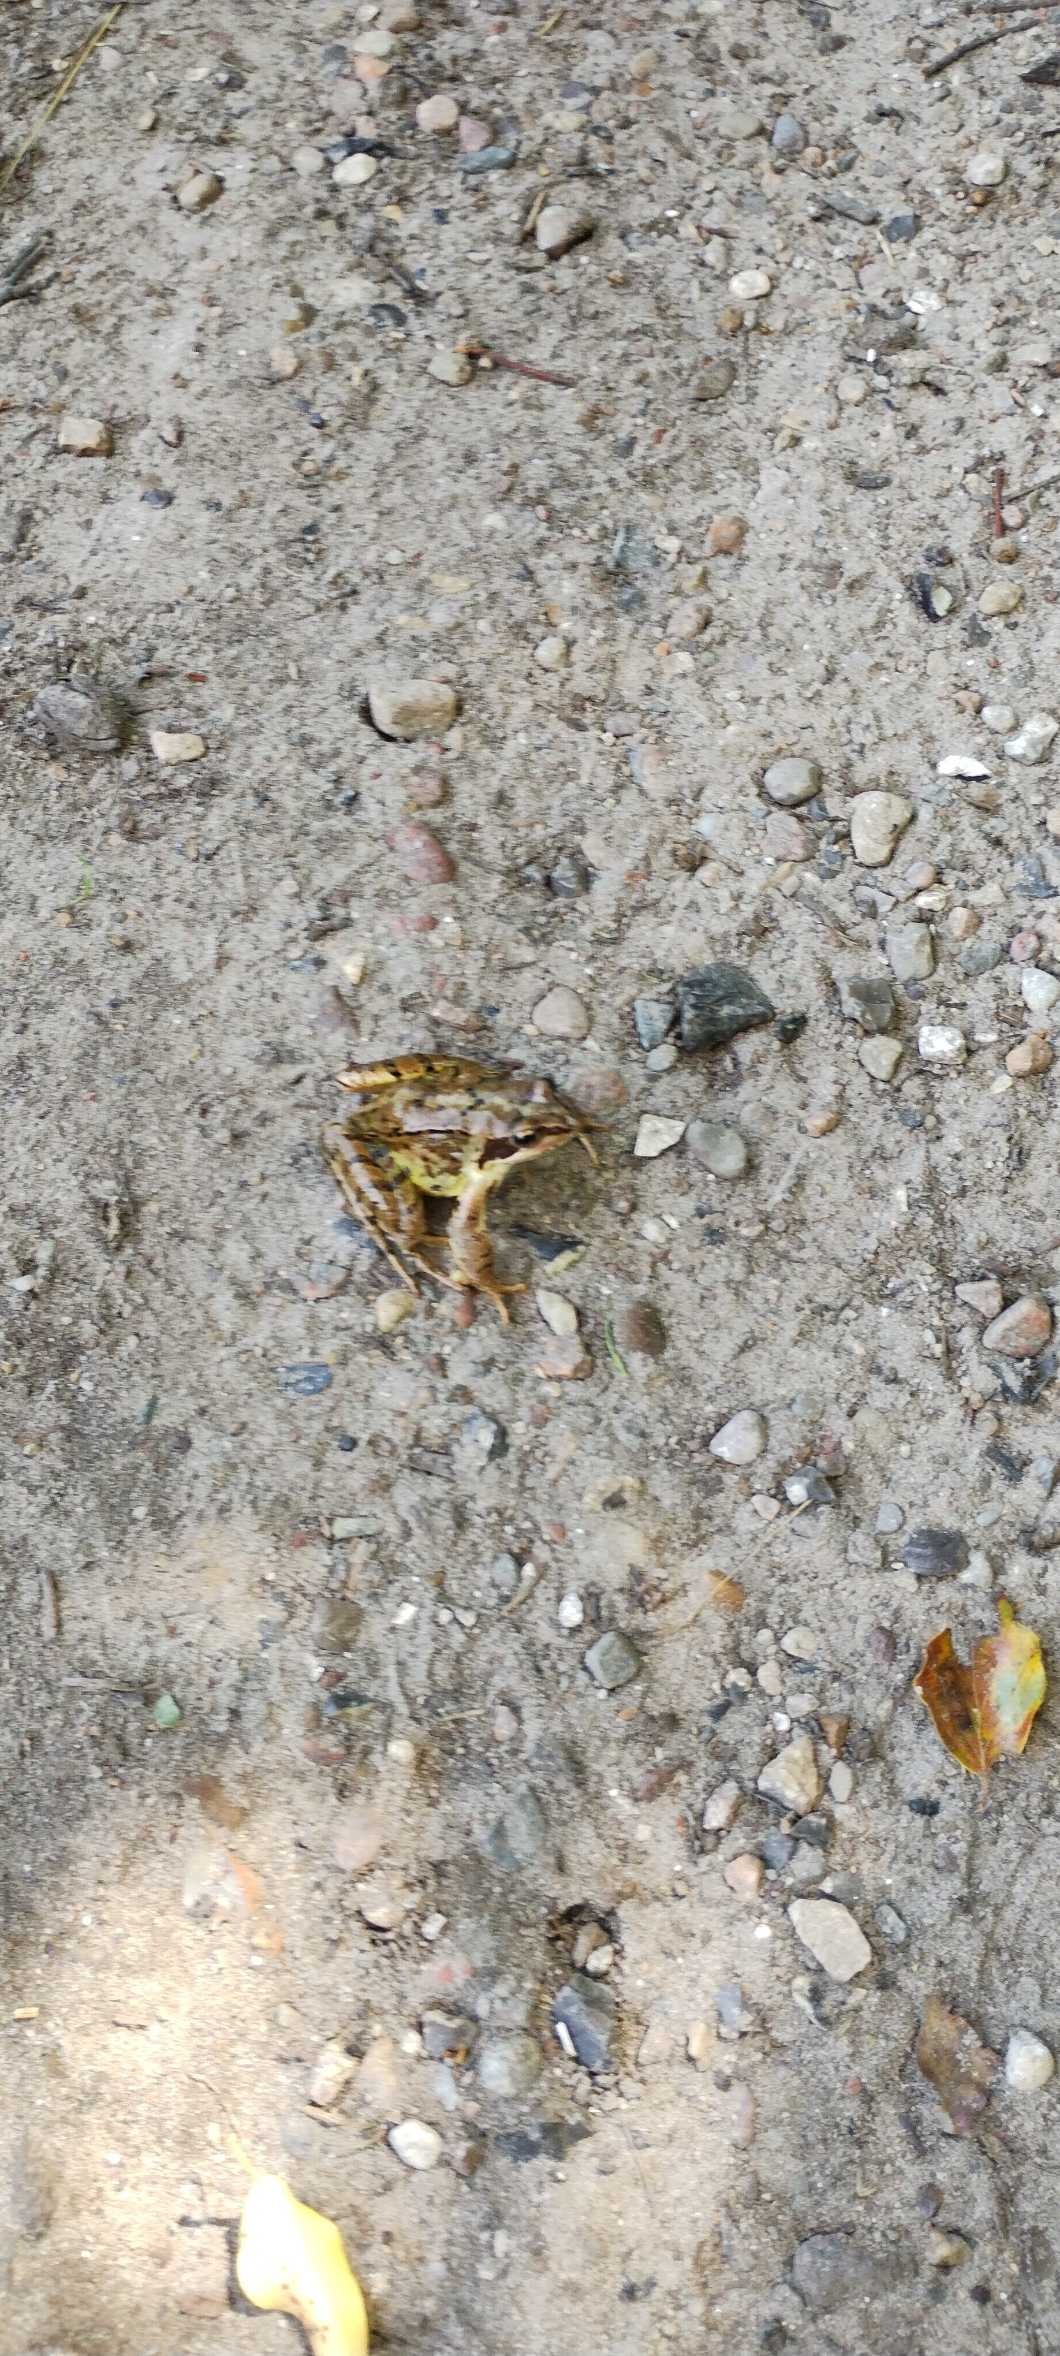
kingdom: Animalia
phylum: Chordata
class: Amphibia
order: Anura
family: Ranidae
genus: Rana
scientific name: Rana temporaria
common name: Butsnudet frø
